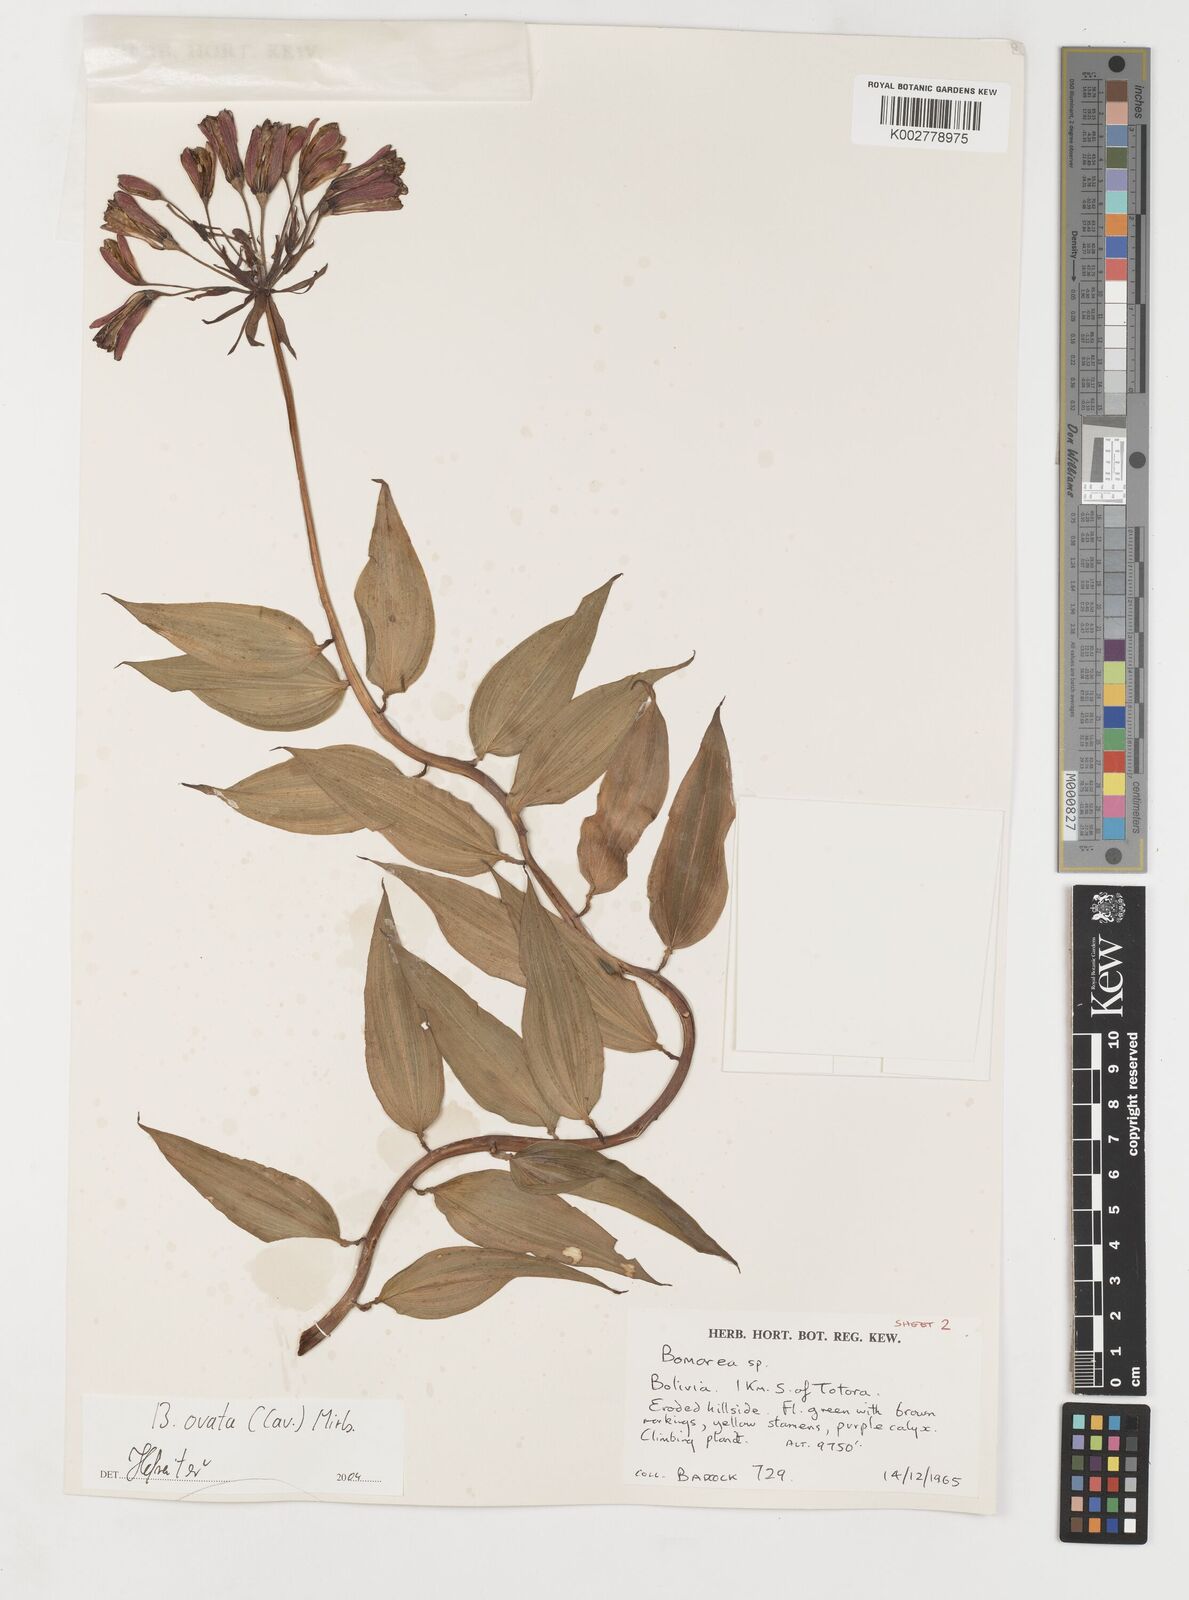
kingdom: Plantae
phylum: Tracheophyta
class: Liliopsida
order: Liliales
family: Alstroemeriaceae
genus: Bomarea
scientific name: Bomarea ovata
